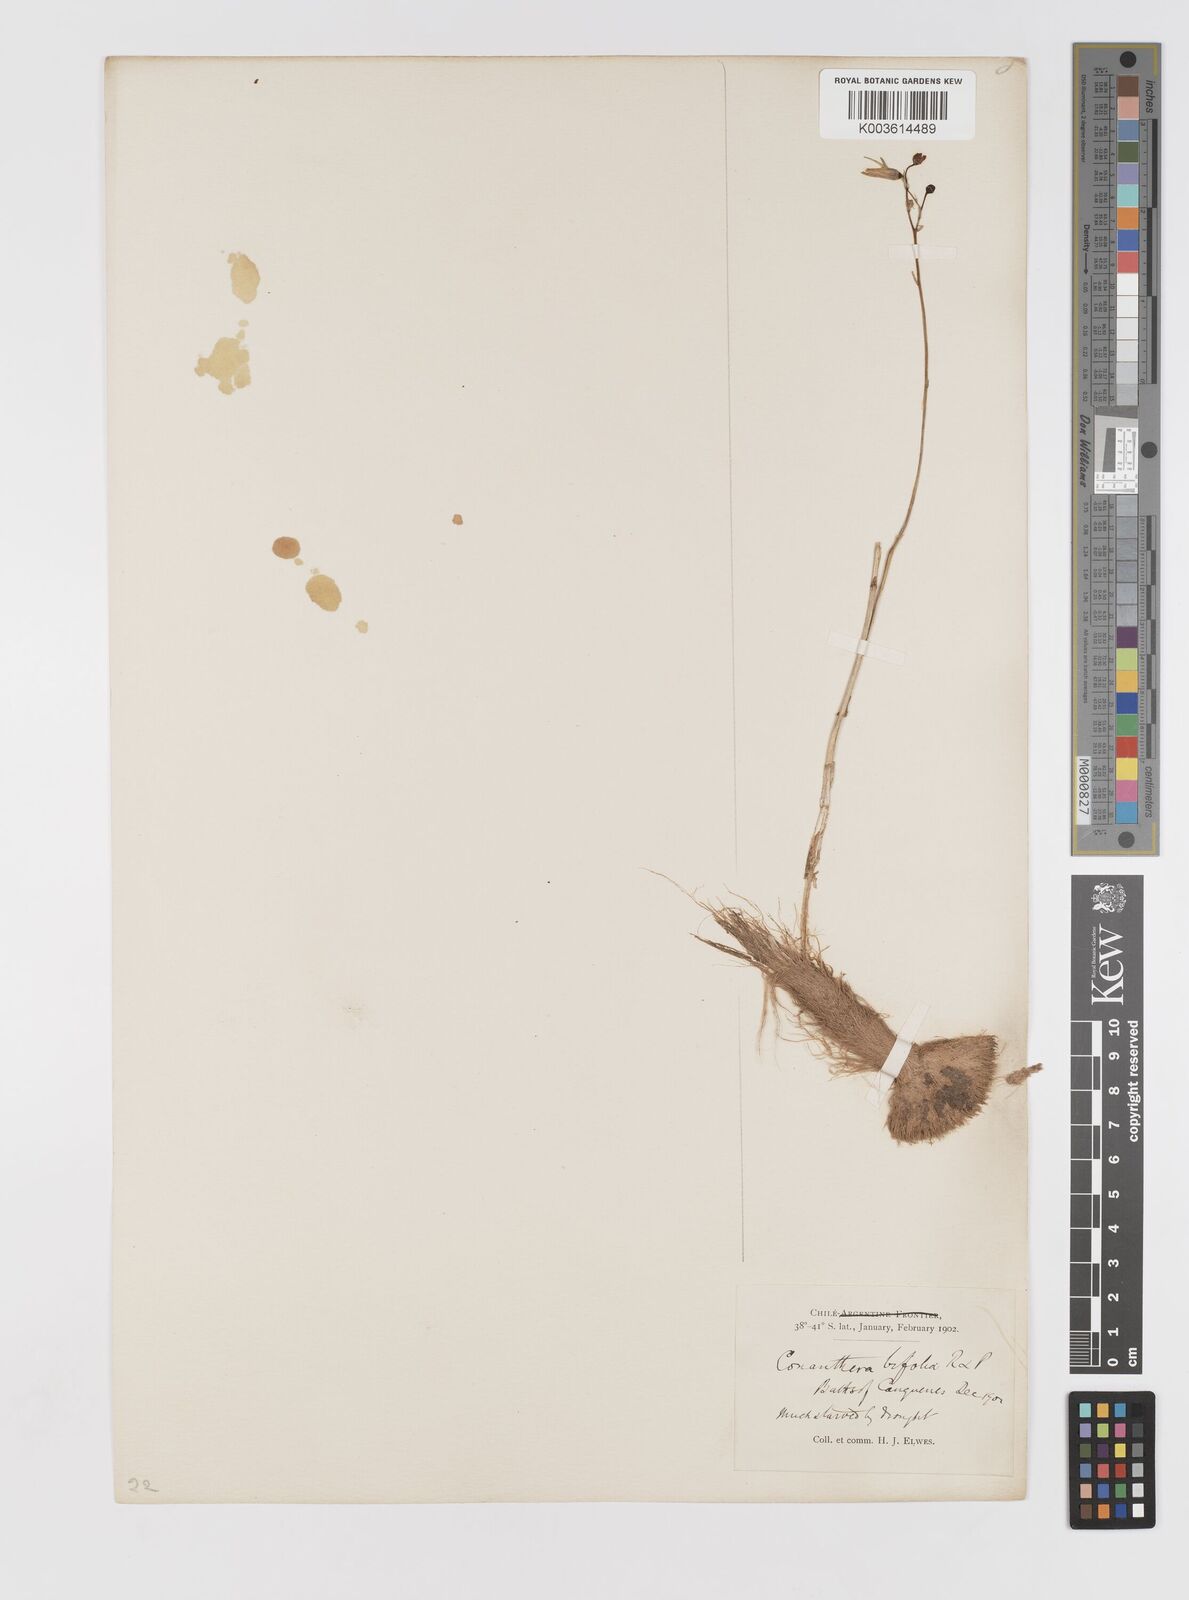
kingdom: Plantae
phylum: Tracheophyta
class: Liliopsida
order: Asparagales
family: Tecophilaeaceae
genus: Conanthera
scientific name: Conanthera bifolia
